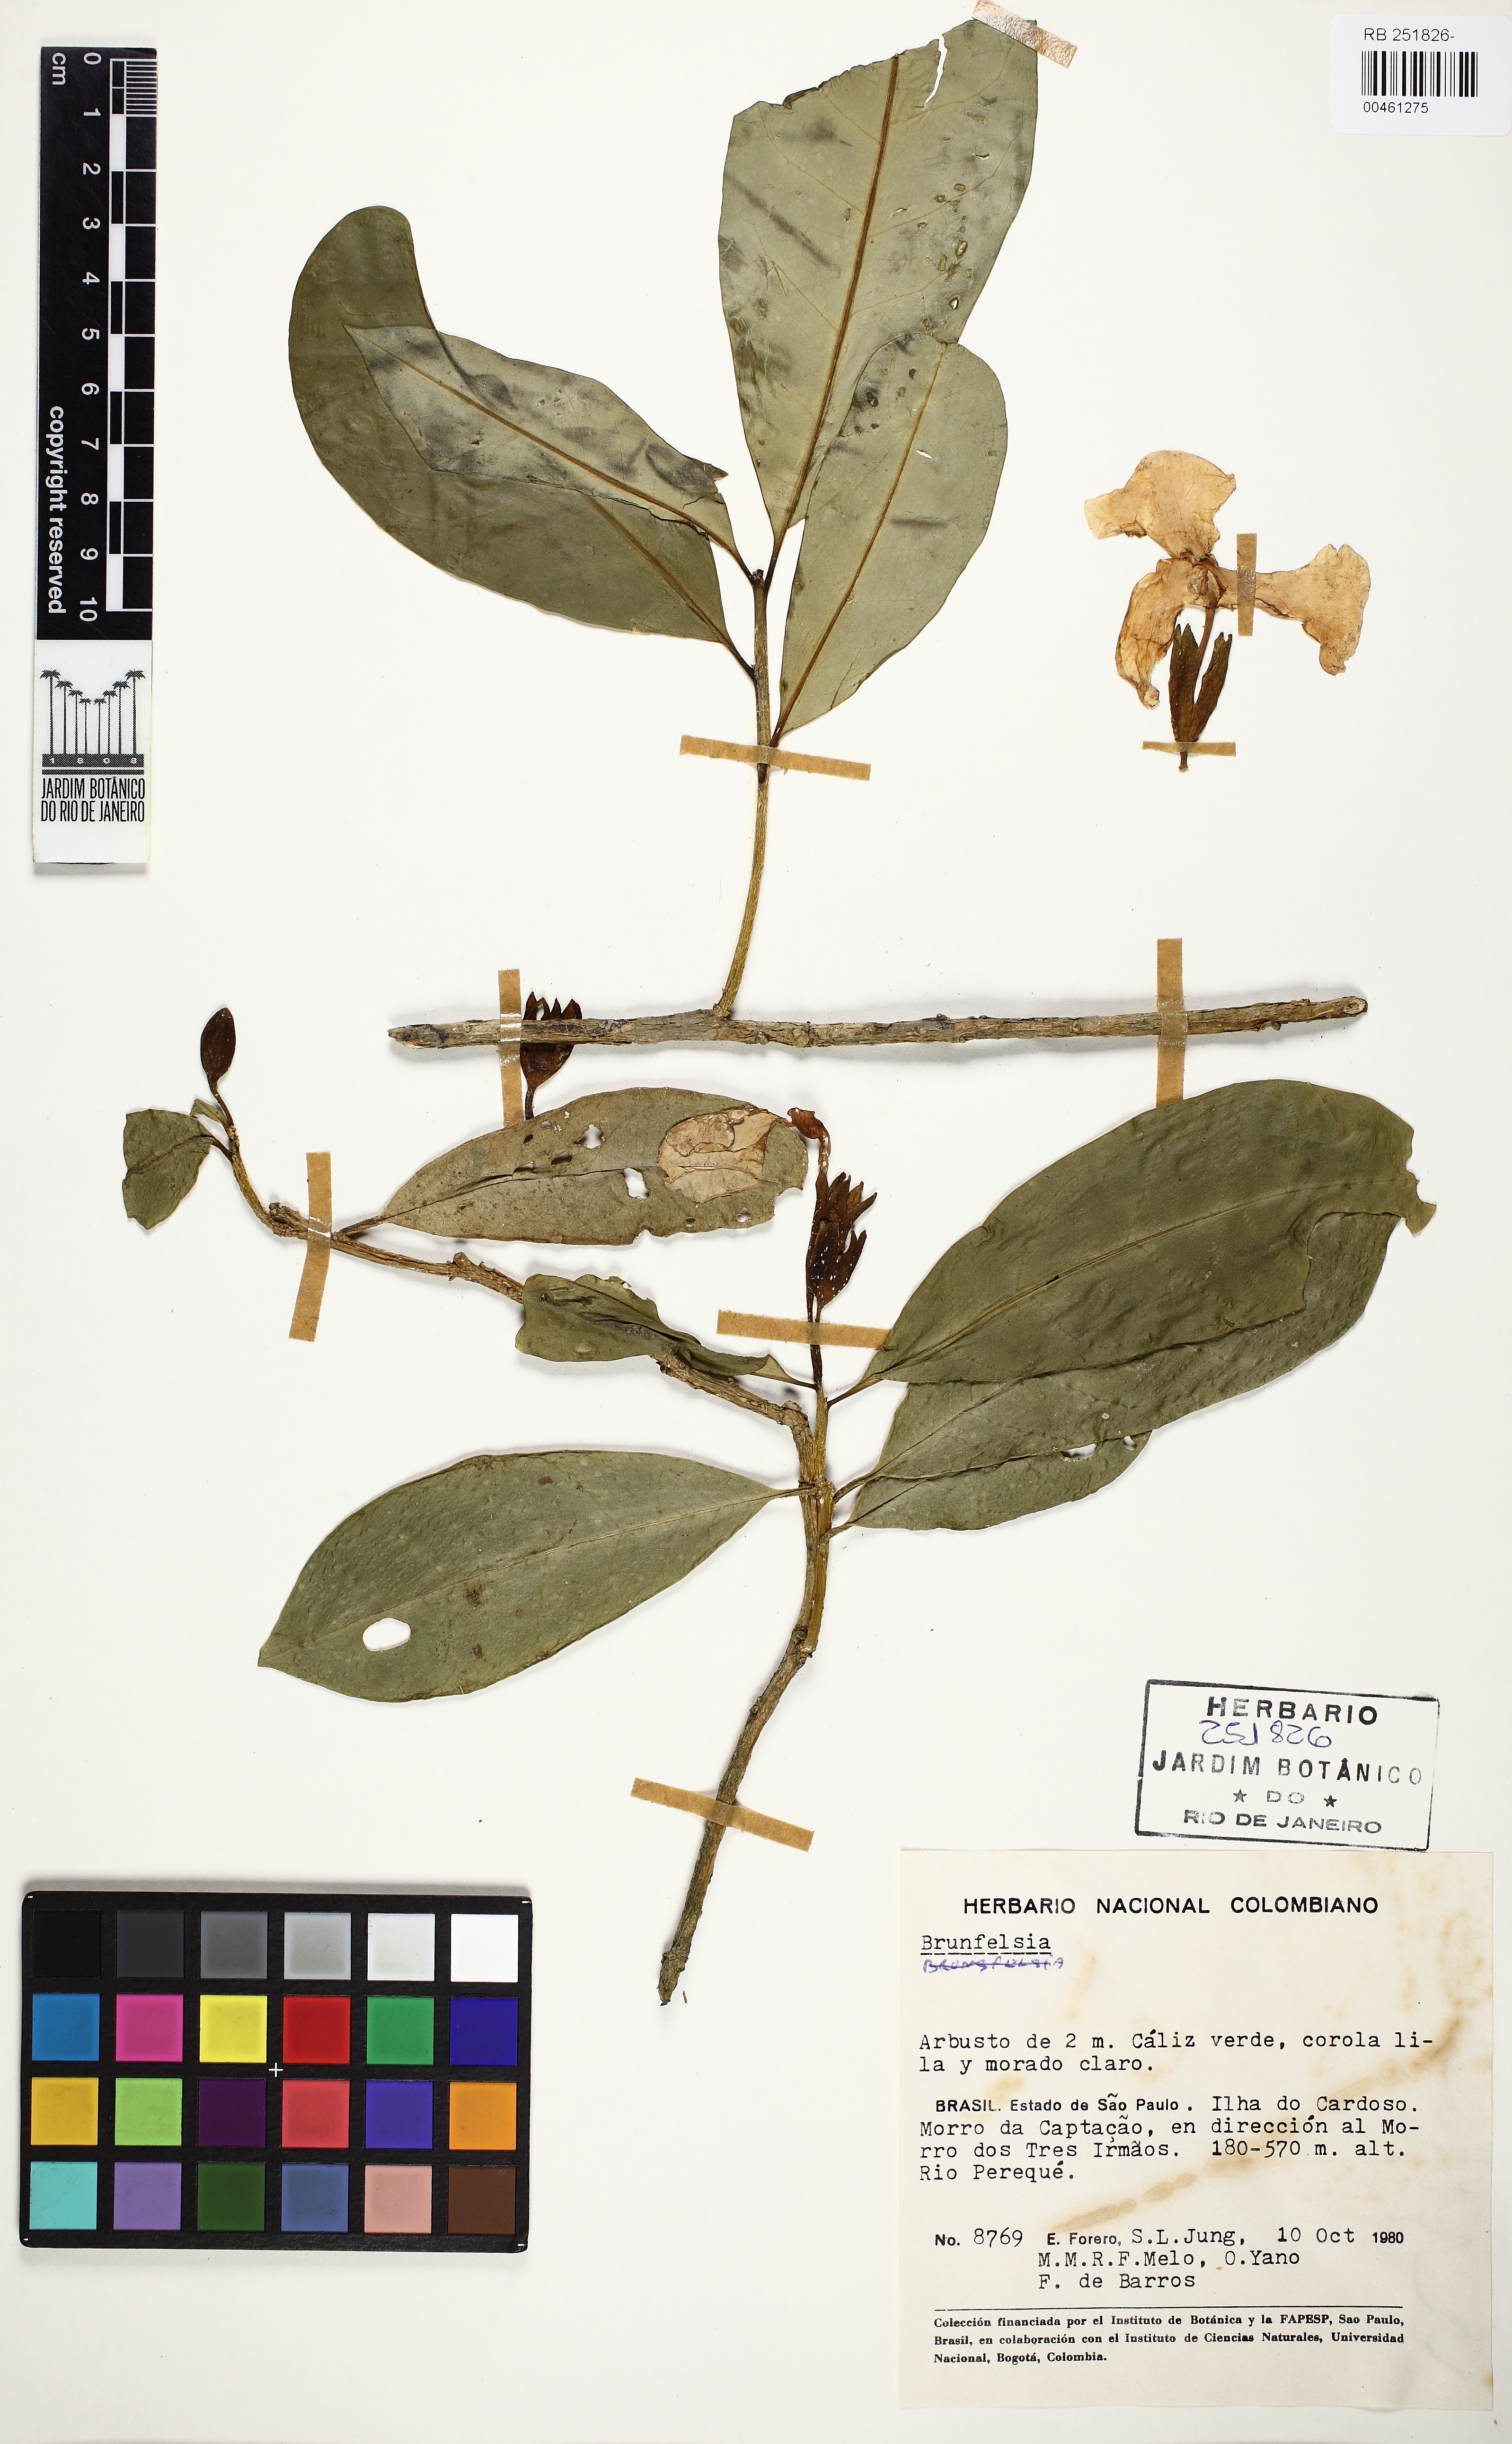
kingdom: Plantae
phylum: Tracheophyta
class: Magnoliopsida
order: Solanales
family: Solanaceae
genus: Brunfelsia
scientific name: Brunfelsia
